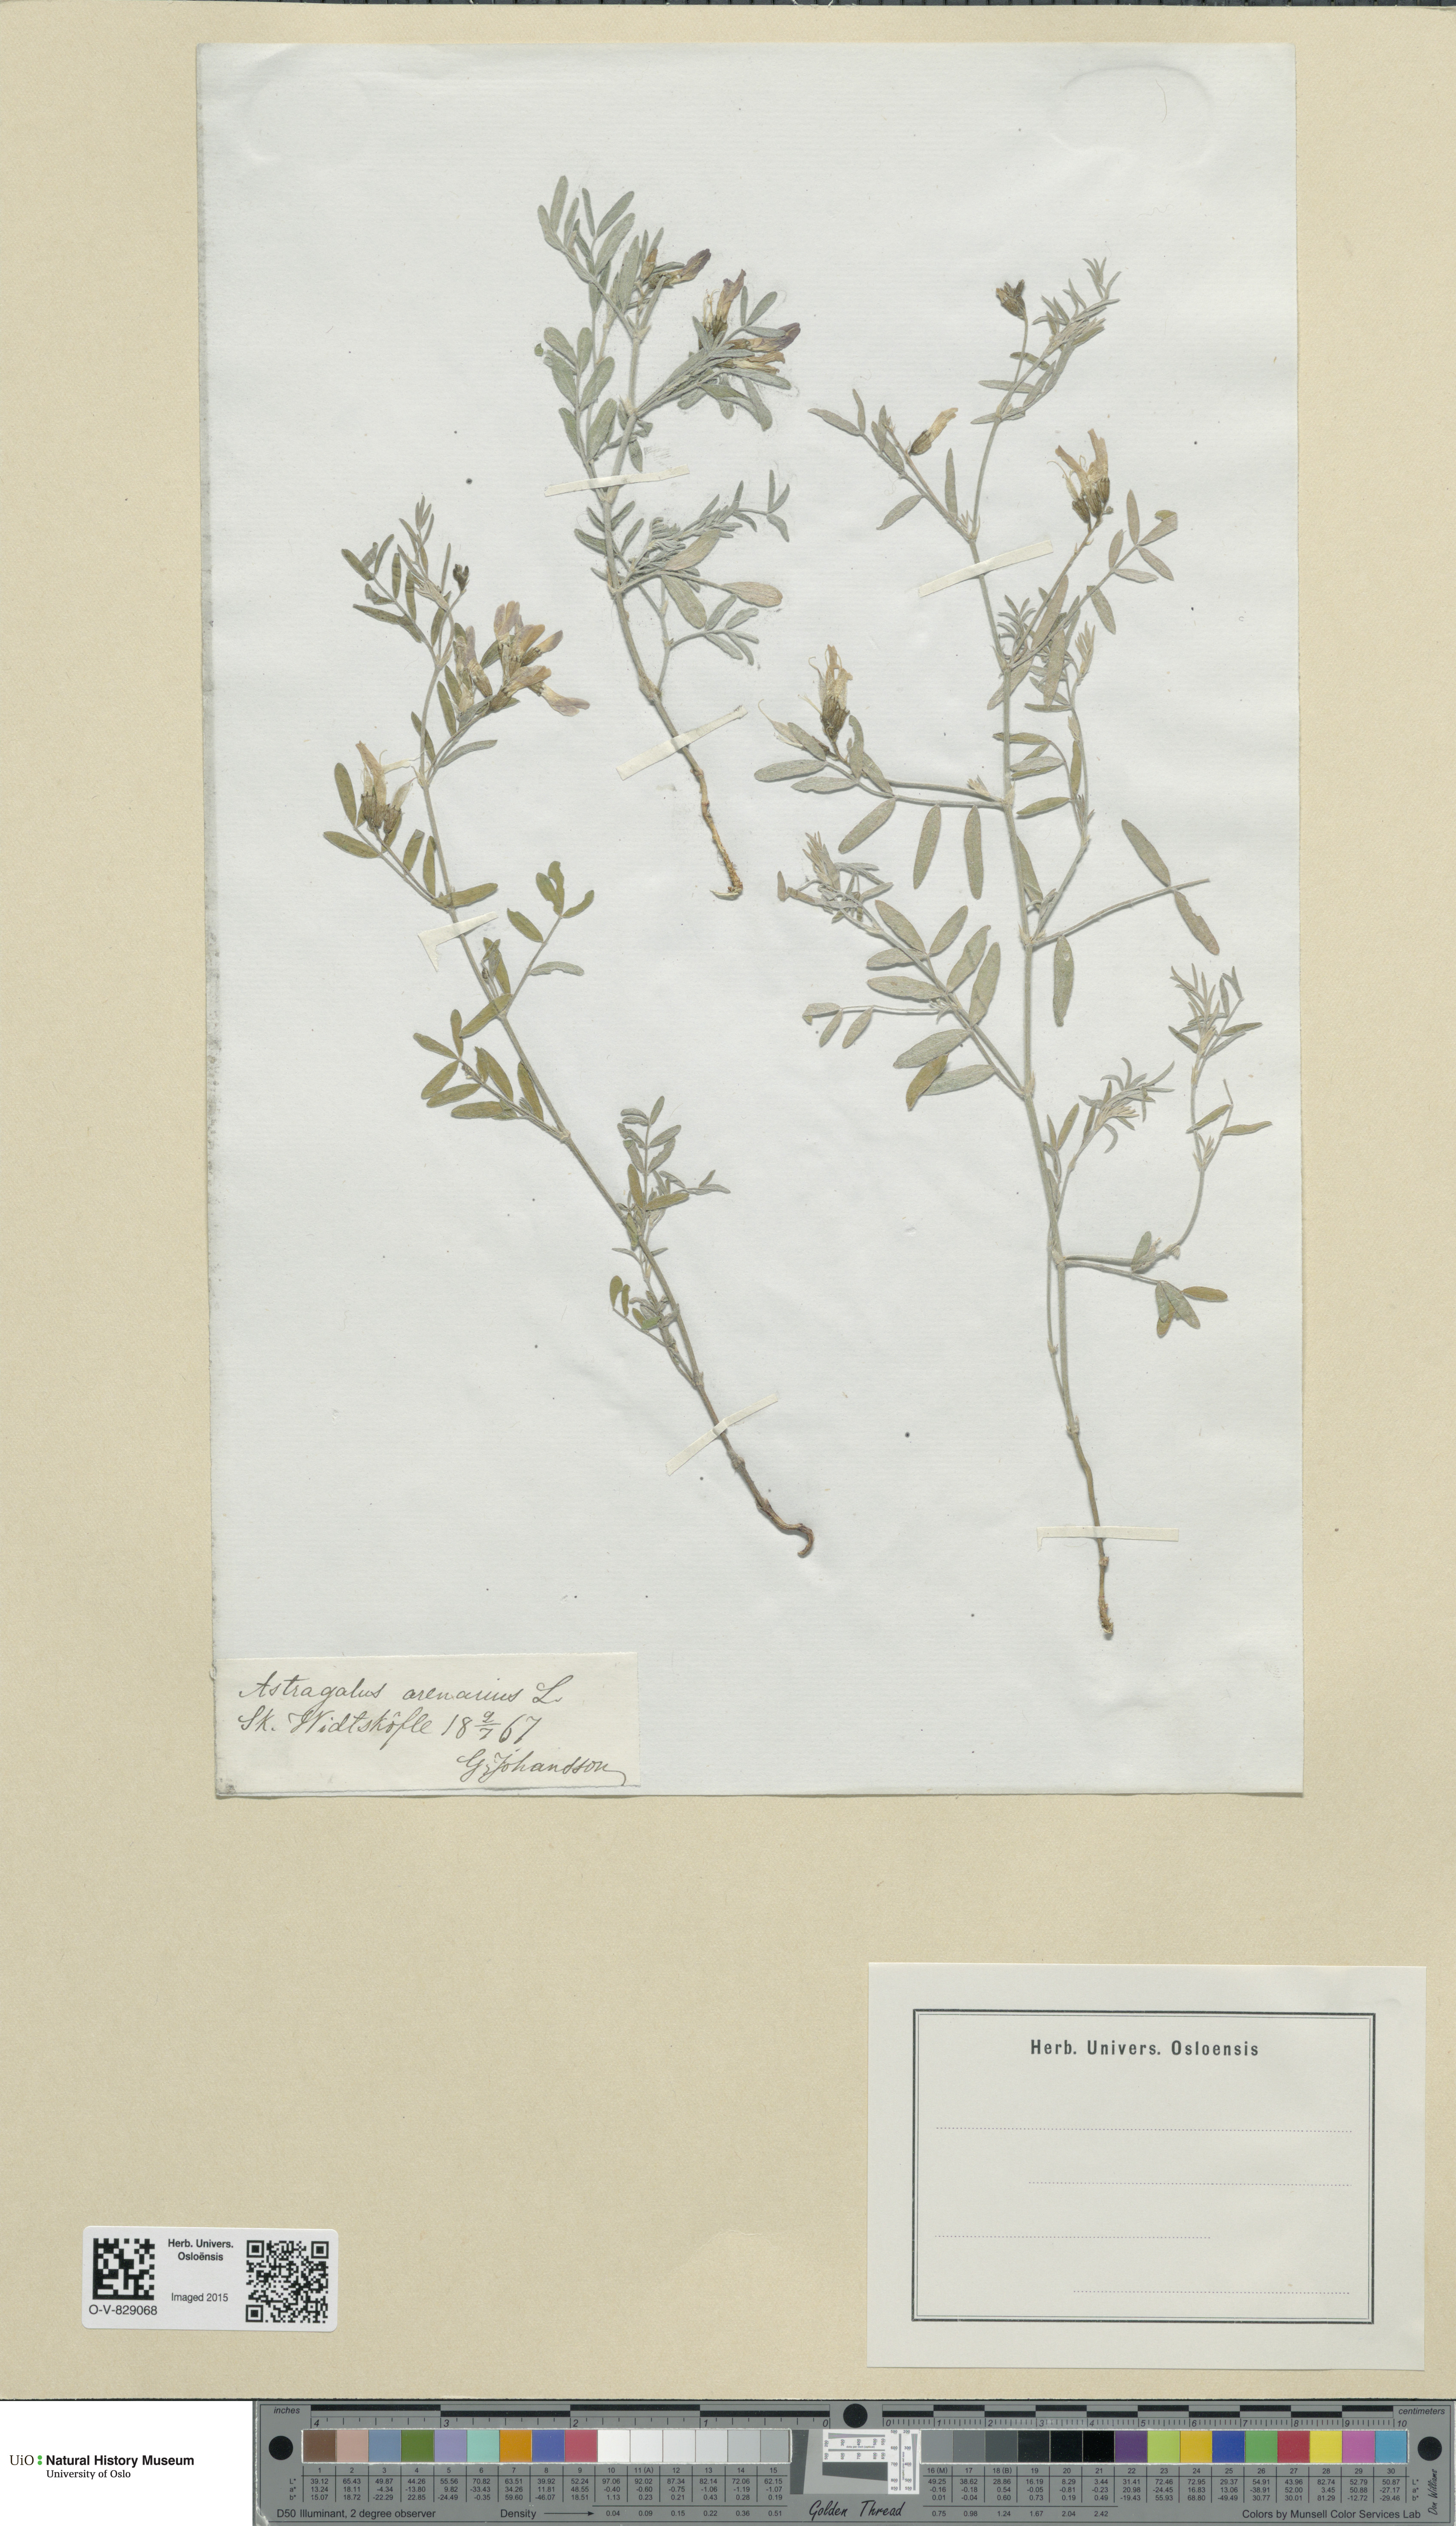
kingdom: Plantae
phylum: Tracheophyta
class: Magnoliopsida
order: Fabales
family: Fabaceae
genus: Astragalus
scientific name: Astragalus arenarius
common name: Arenarious milk-vetch
